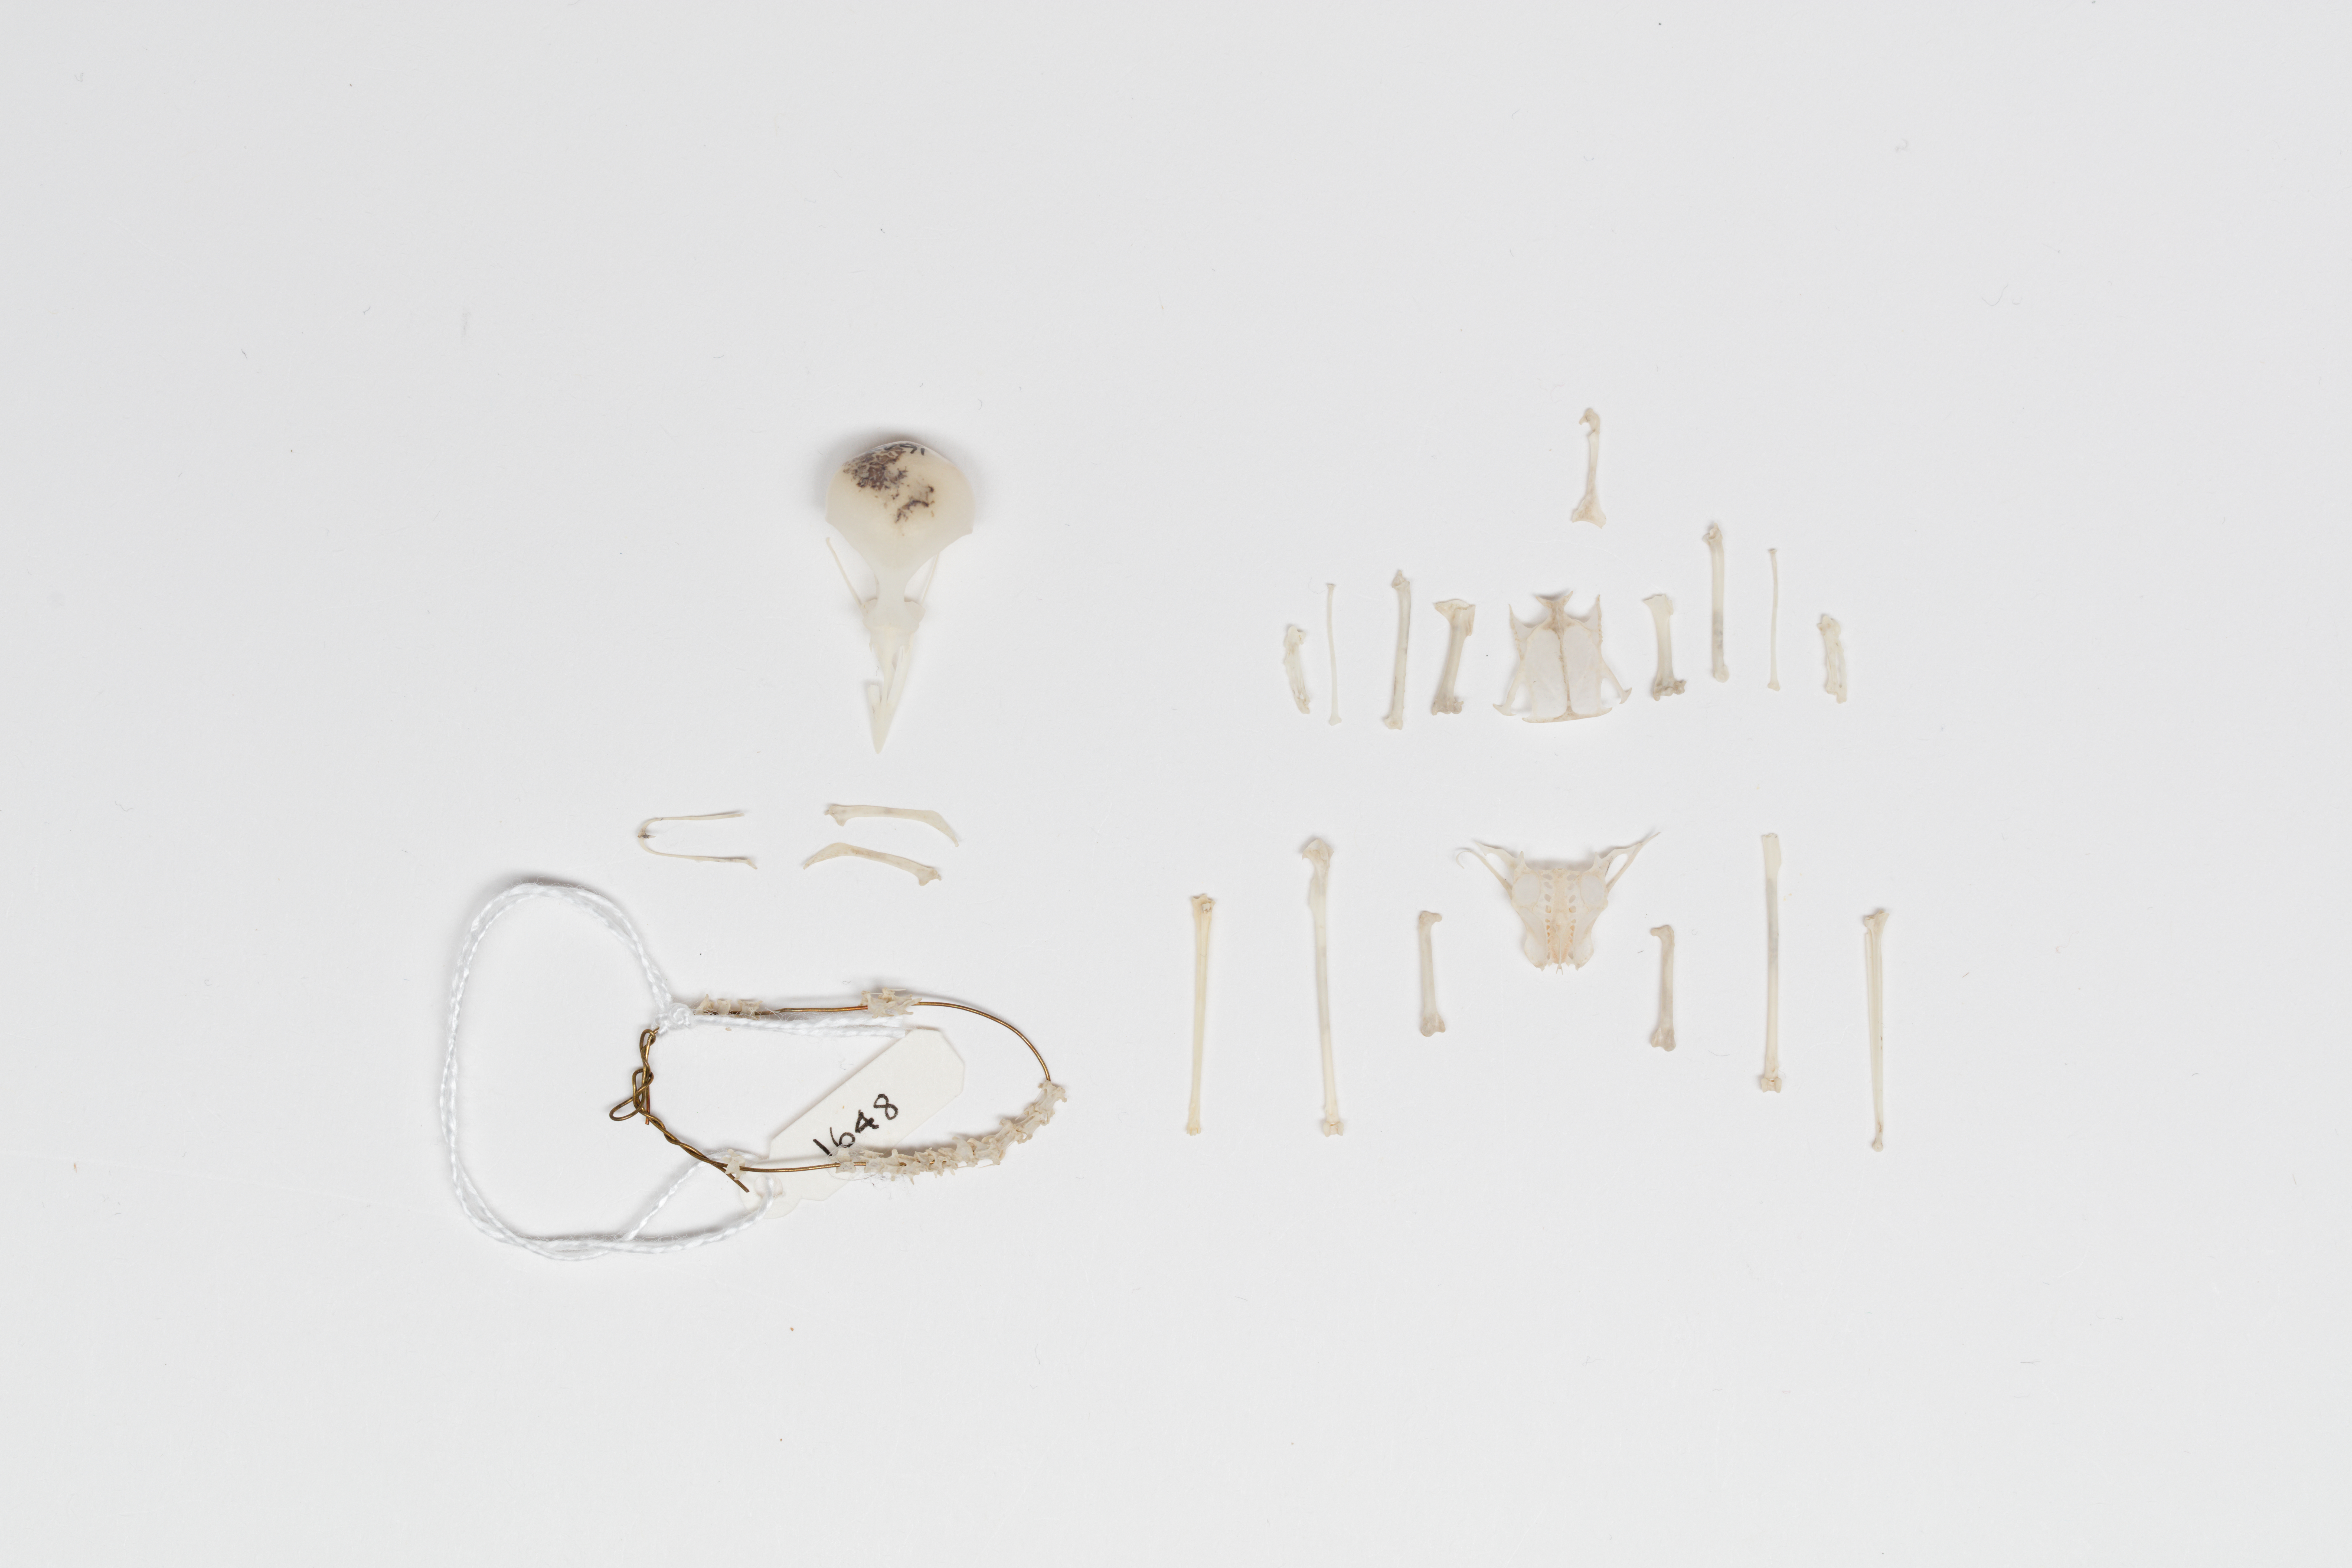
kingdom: Animalia
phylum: Chordata
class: Aves
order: Passeriformes
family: Acanthizidae
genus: Gerygone
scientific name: Gerygone igata
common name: Grey gerygone
